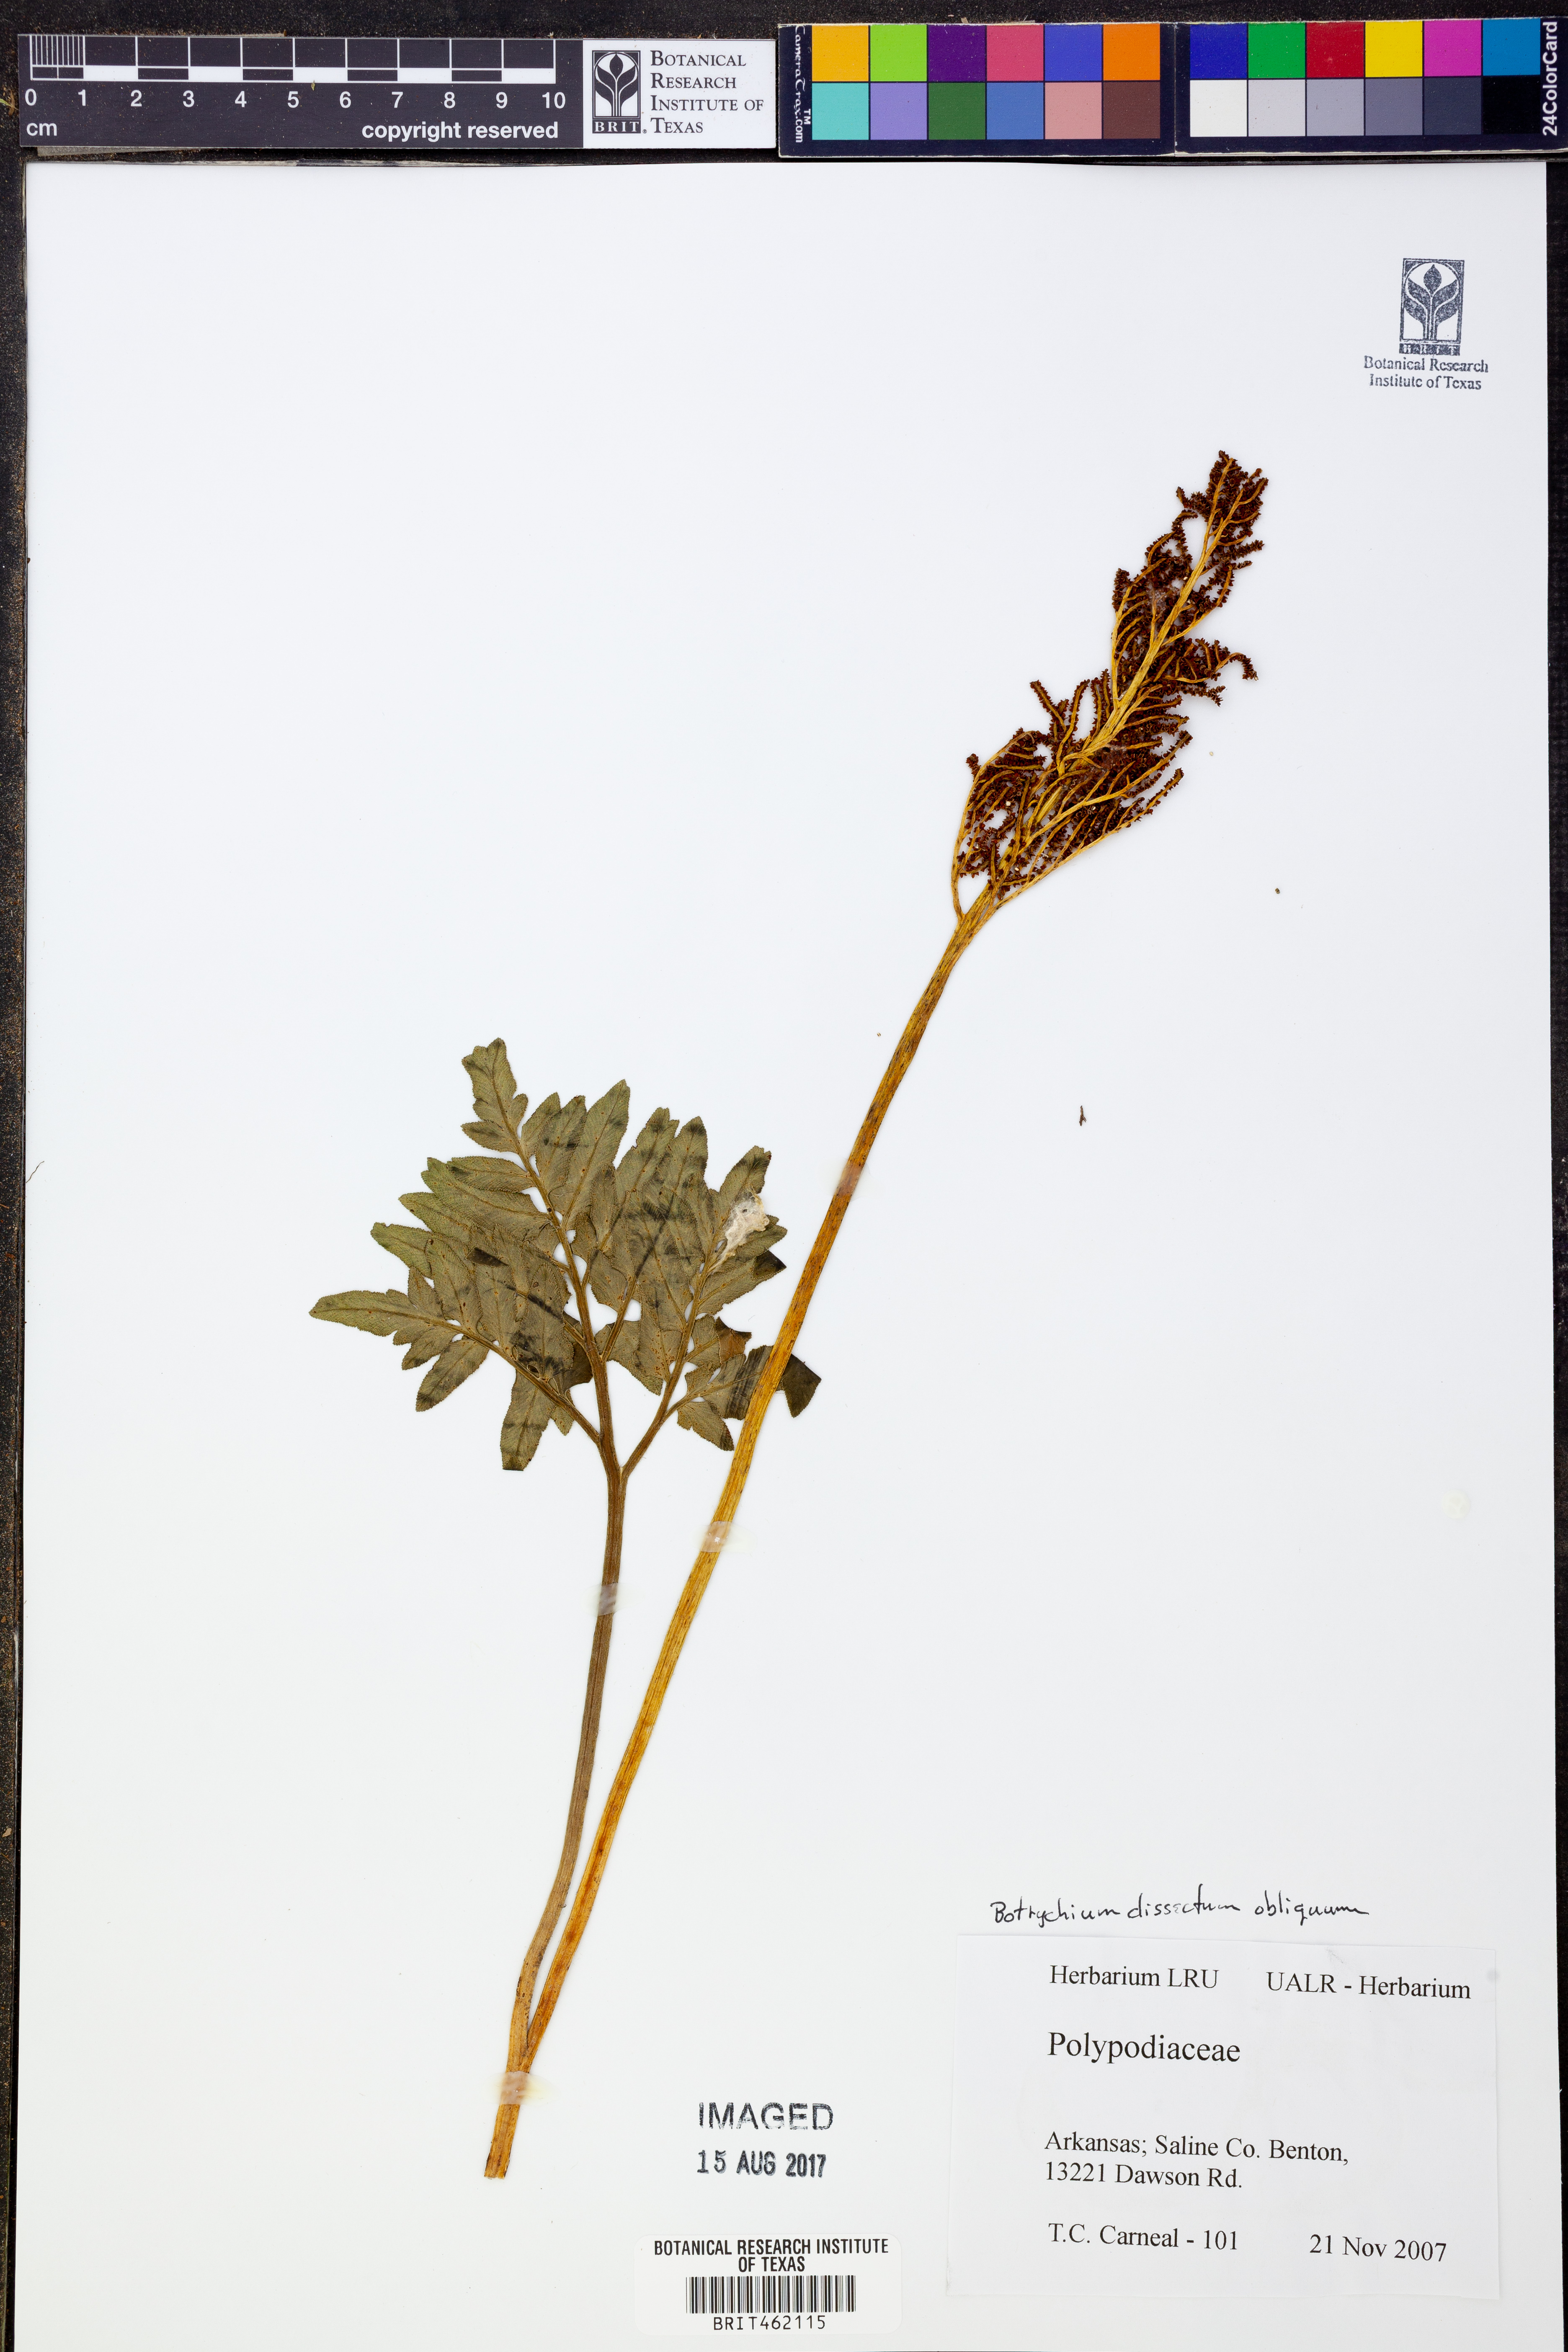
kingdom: Plantae
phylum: Tracheophyta
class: Polypodiopsida
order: Ophioglossales
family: Ophioglossaceae
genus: Sceptridium
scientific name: Sceptridium dissectum
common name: Cut-leaved grapefern
